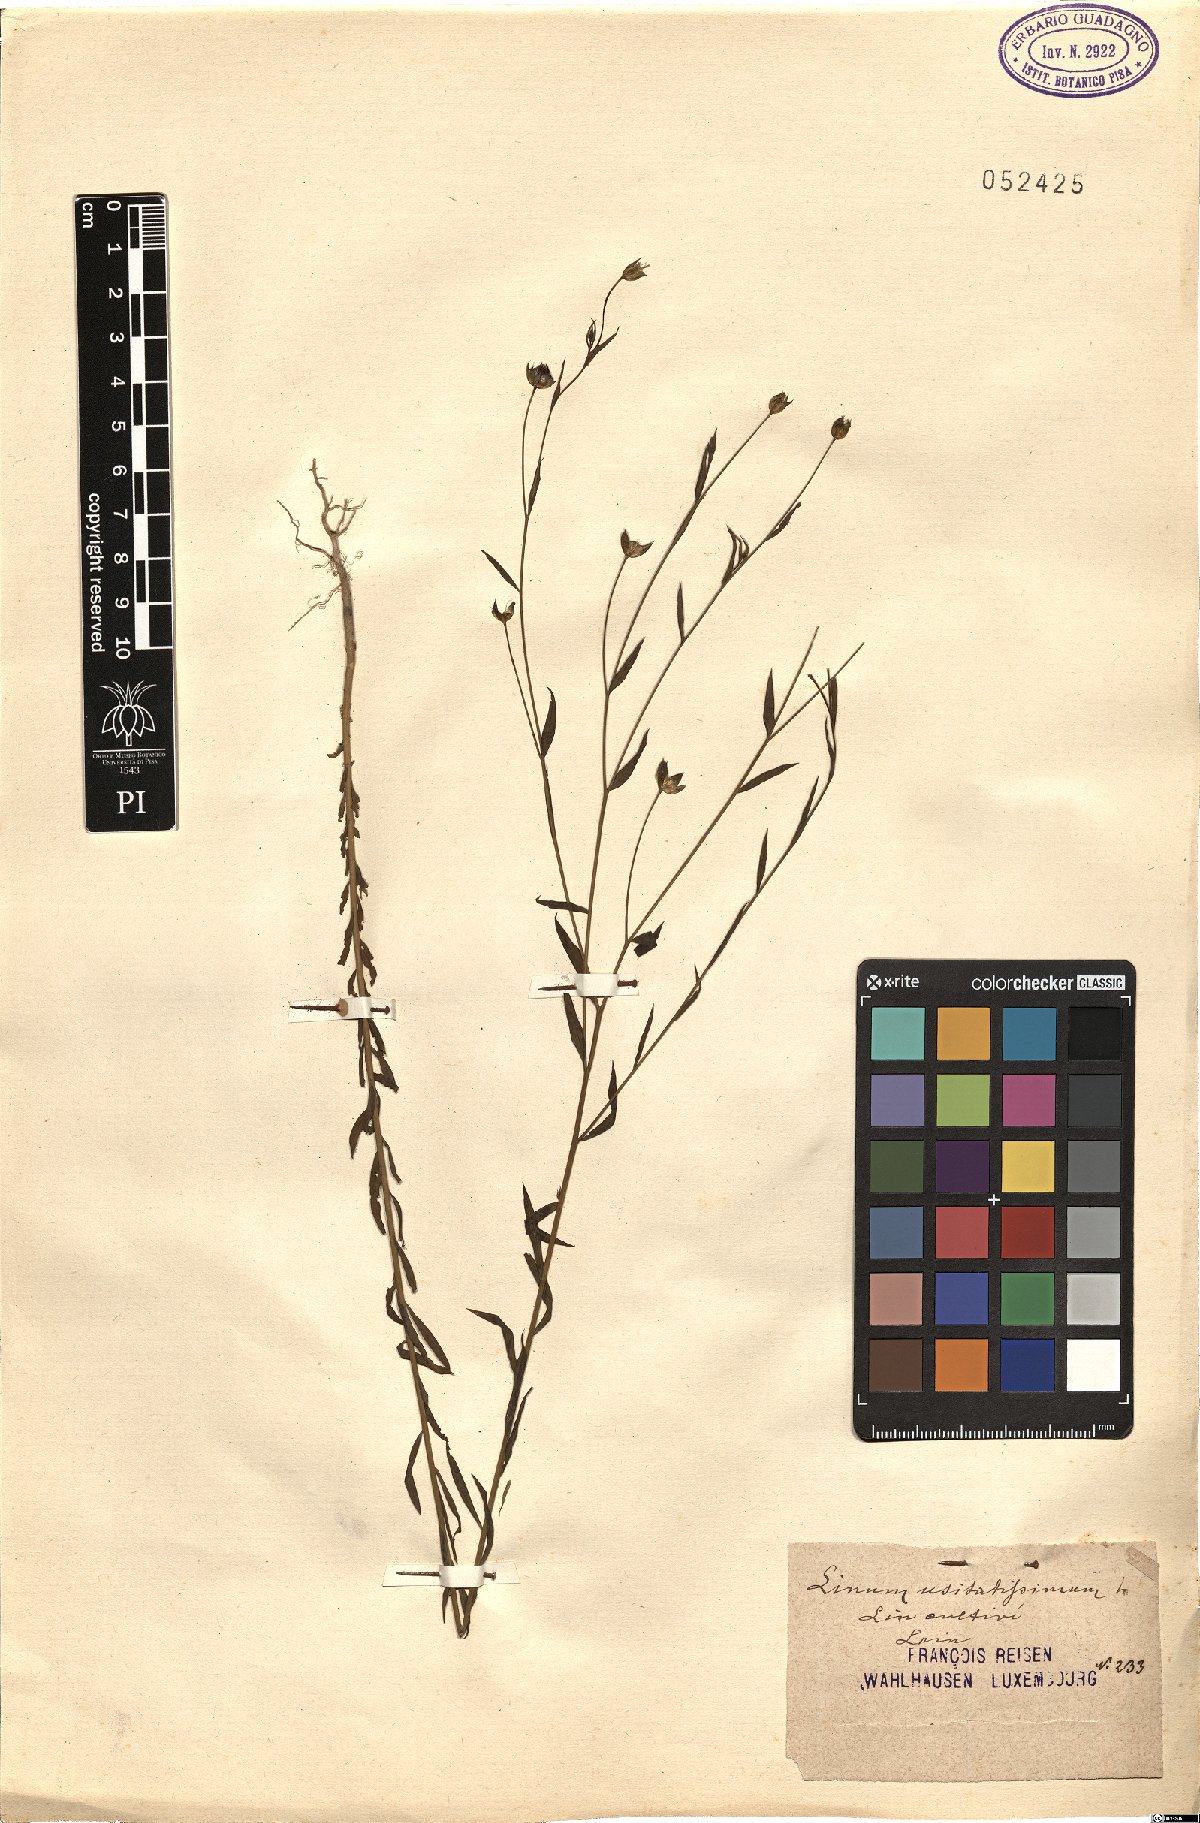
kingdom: Plantae
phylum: Tracheophyta
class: Magnoliopsida
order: Malpighiales
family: Linaceae
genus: Linum
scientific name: Linum usitatissimum
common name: Flax
